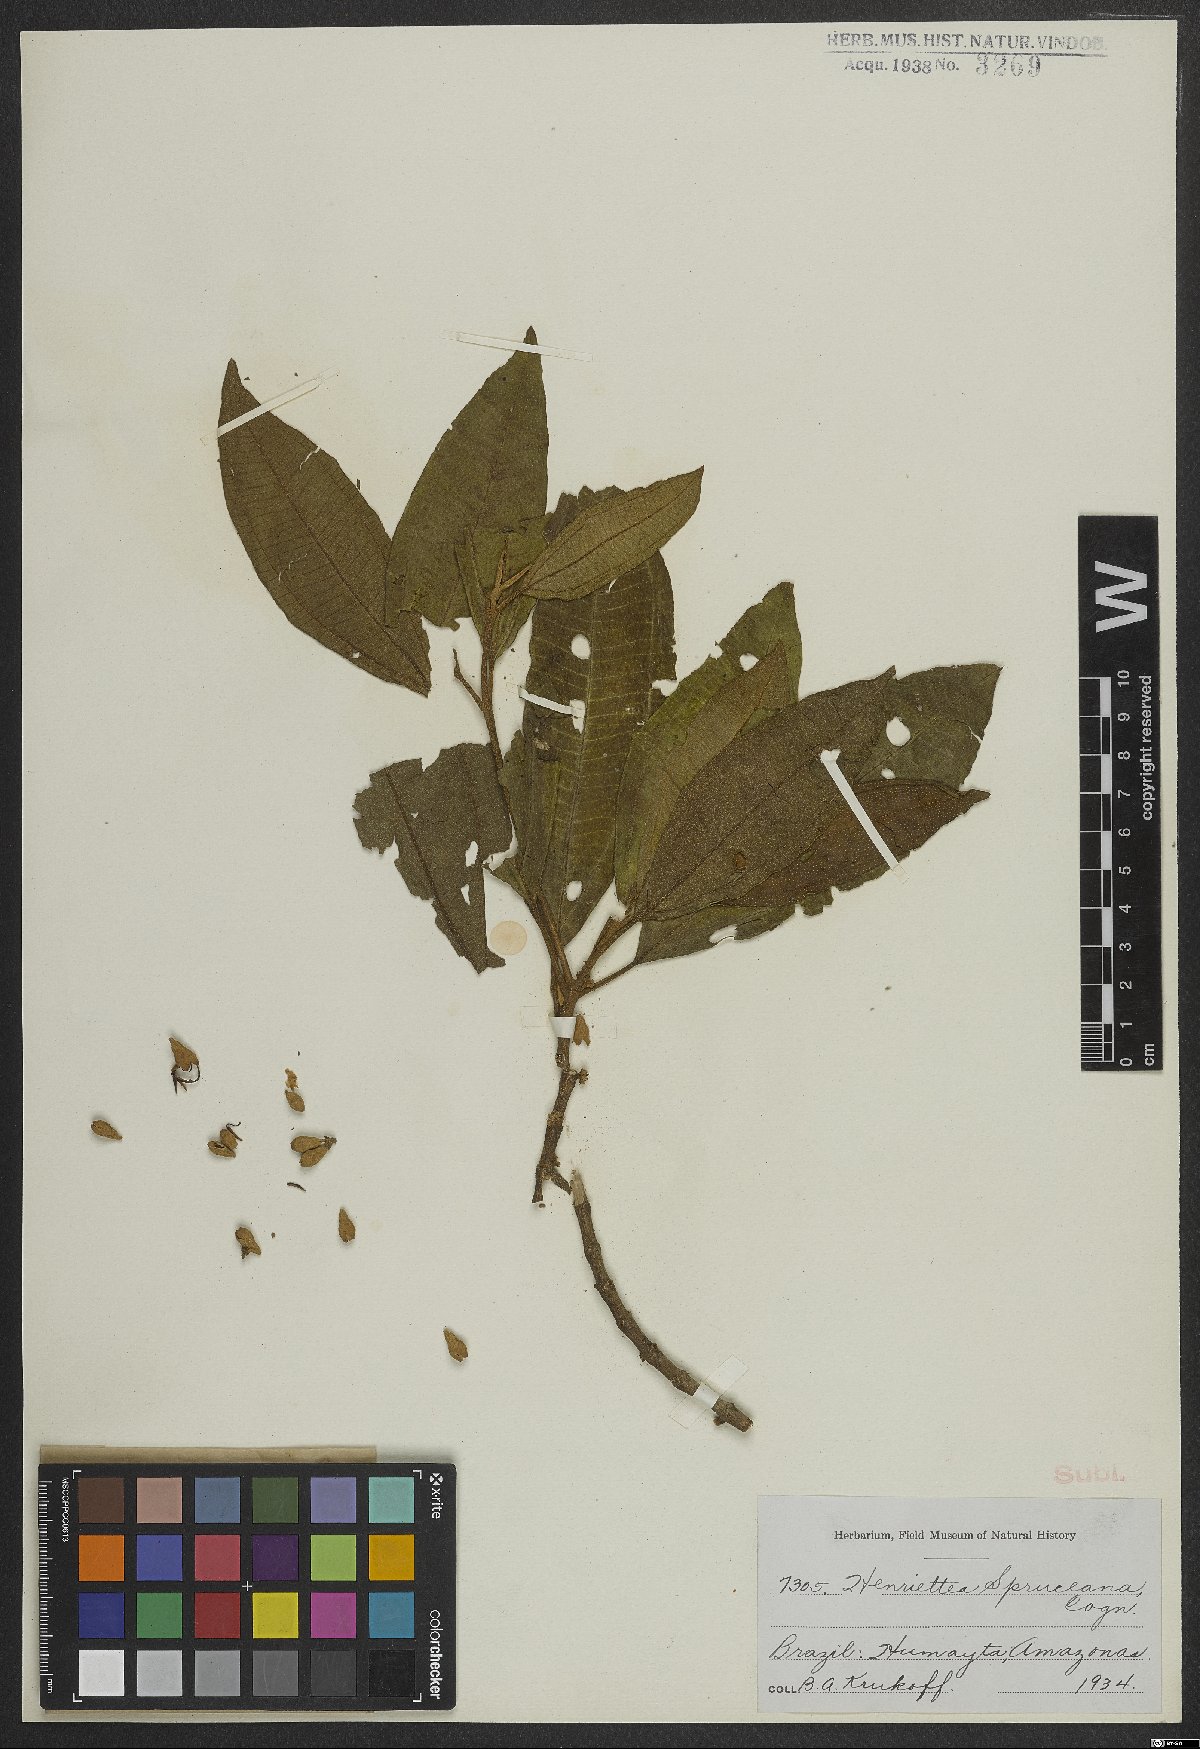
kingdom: Plantae
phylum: Tracheophyta
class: Magnoliopsida
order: Myrtales
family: Melastomataceae
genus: Henriettea
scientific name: Henriettea spruceana
